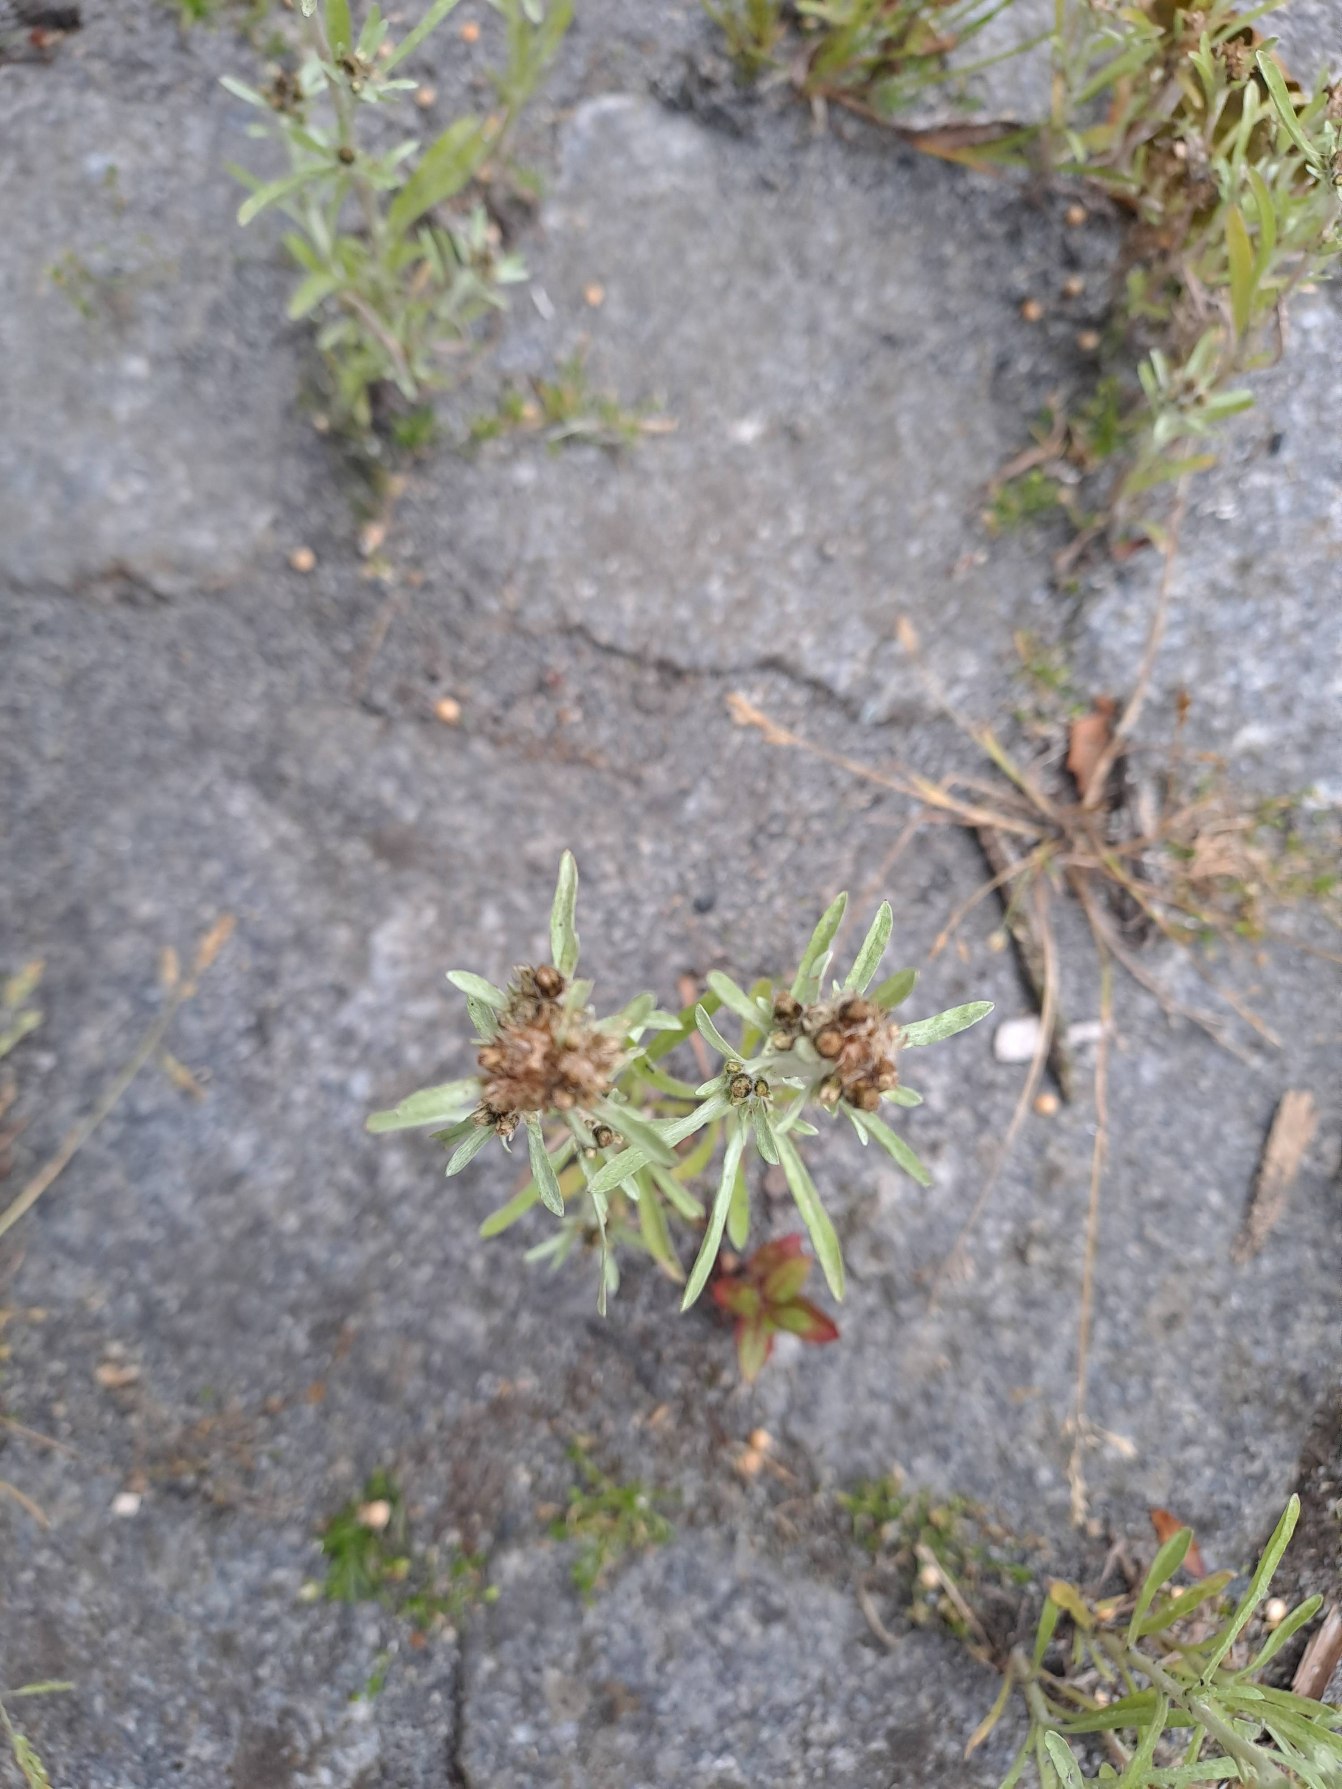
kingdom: Plantae
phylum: Tracheophyta
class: Magnoliopsida
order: Asterales
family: Asteraceae
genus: Gnaphalium
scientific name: Gnaphalium uliginosum
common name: Sump-evighedsblomst
